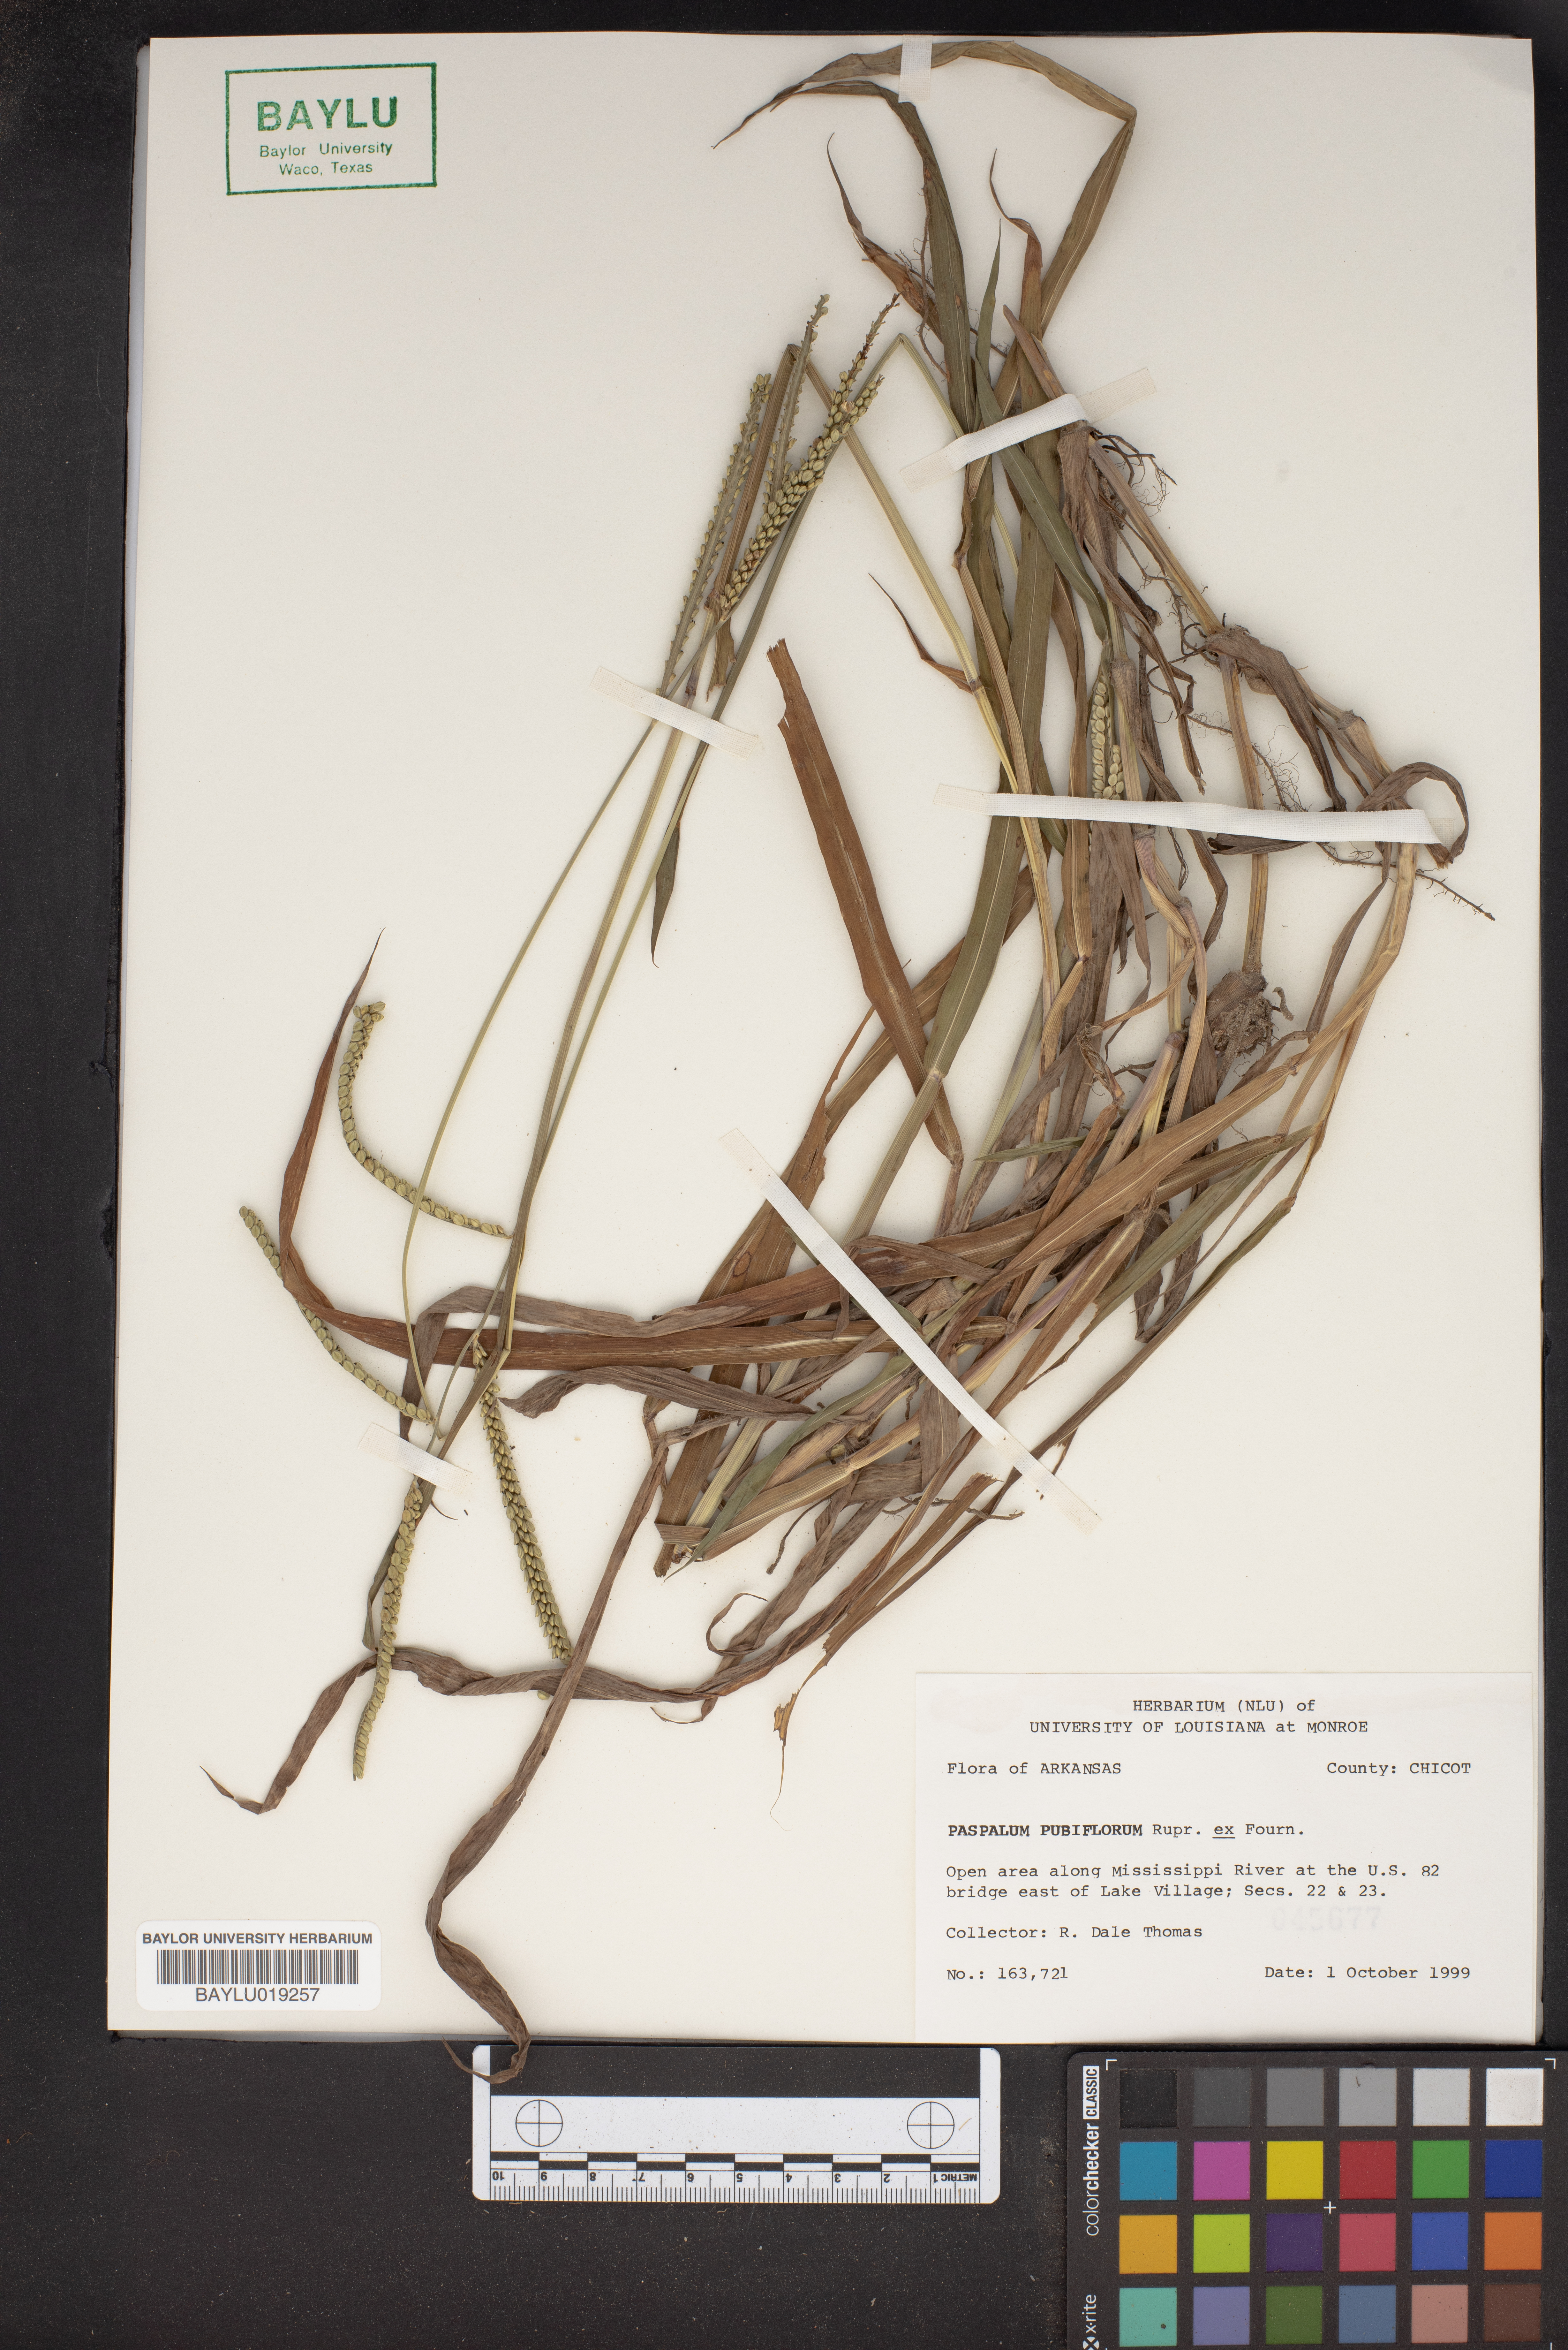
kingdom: Plantae
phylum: Tracheophyta
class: Liliopsida
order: Poales
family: Poaceae
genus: Paspalum
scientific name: Paspalum pubiflorum
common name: Hairy-seed paspalum
